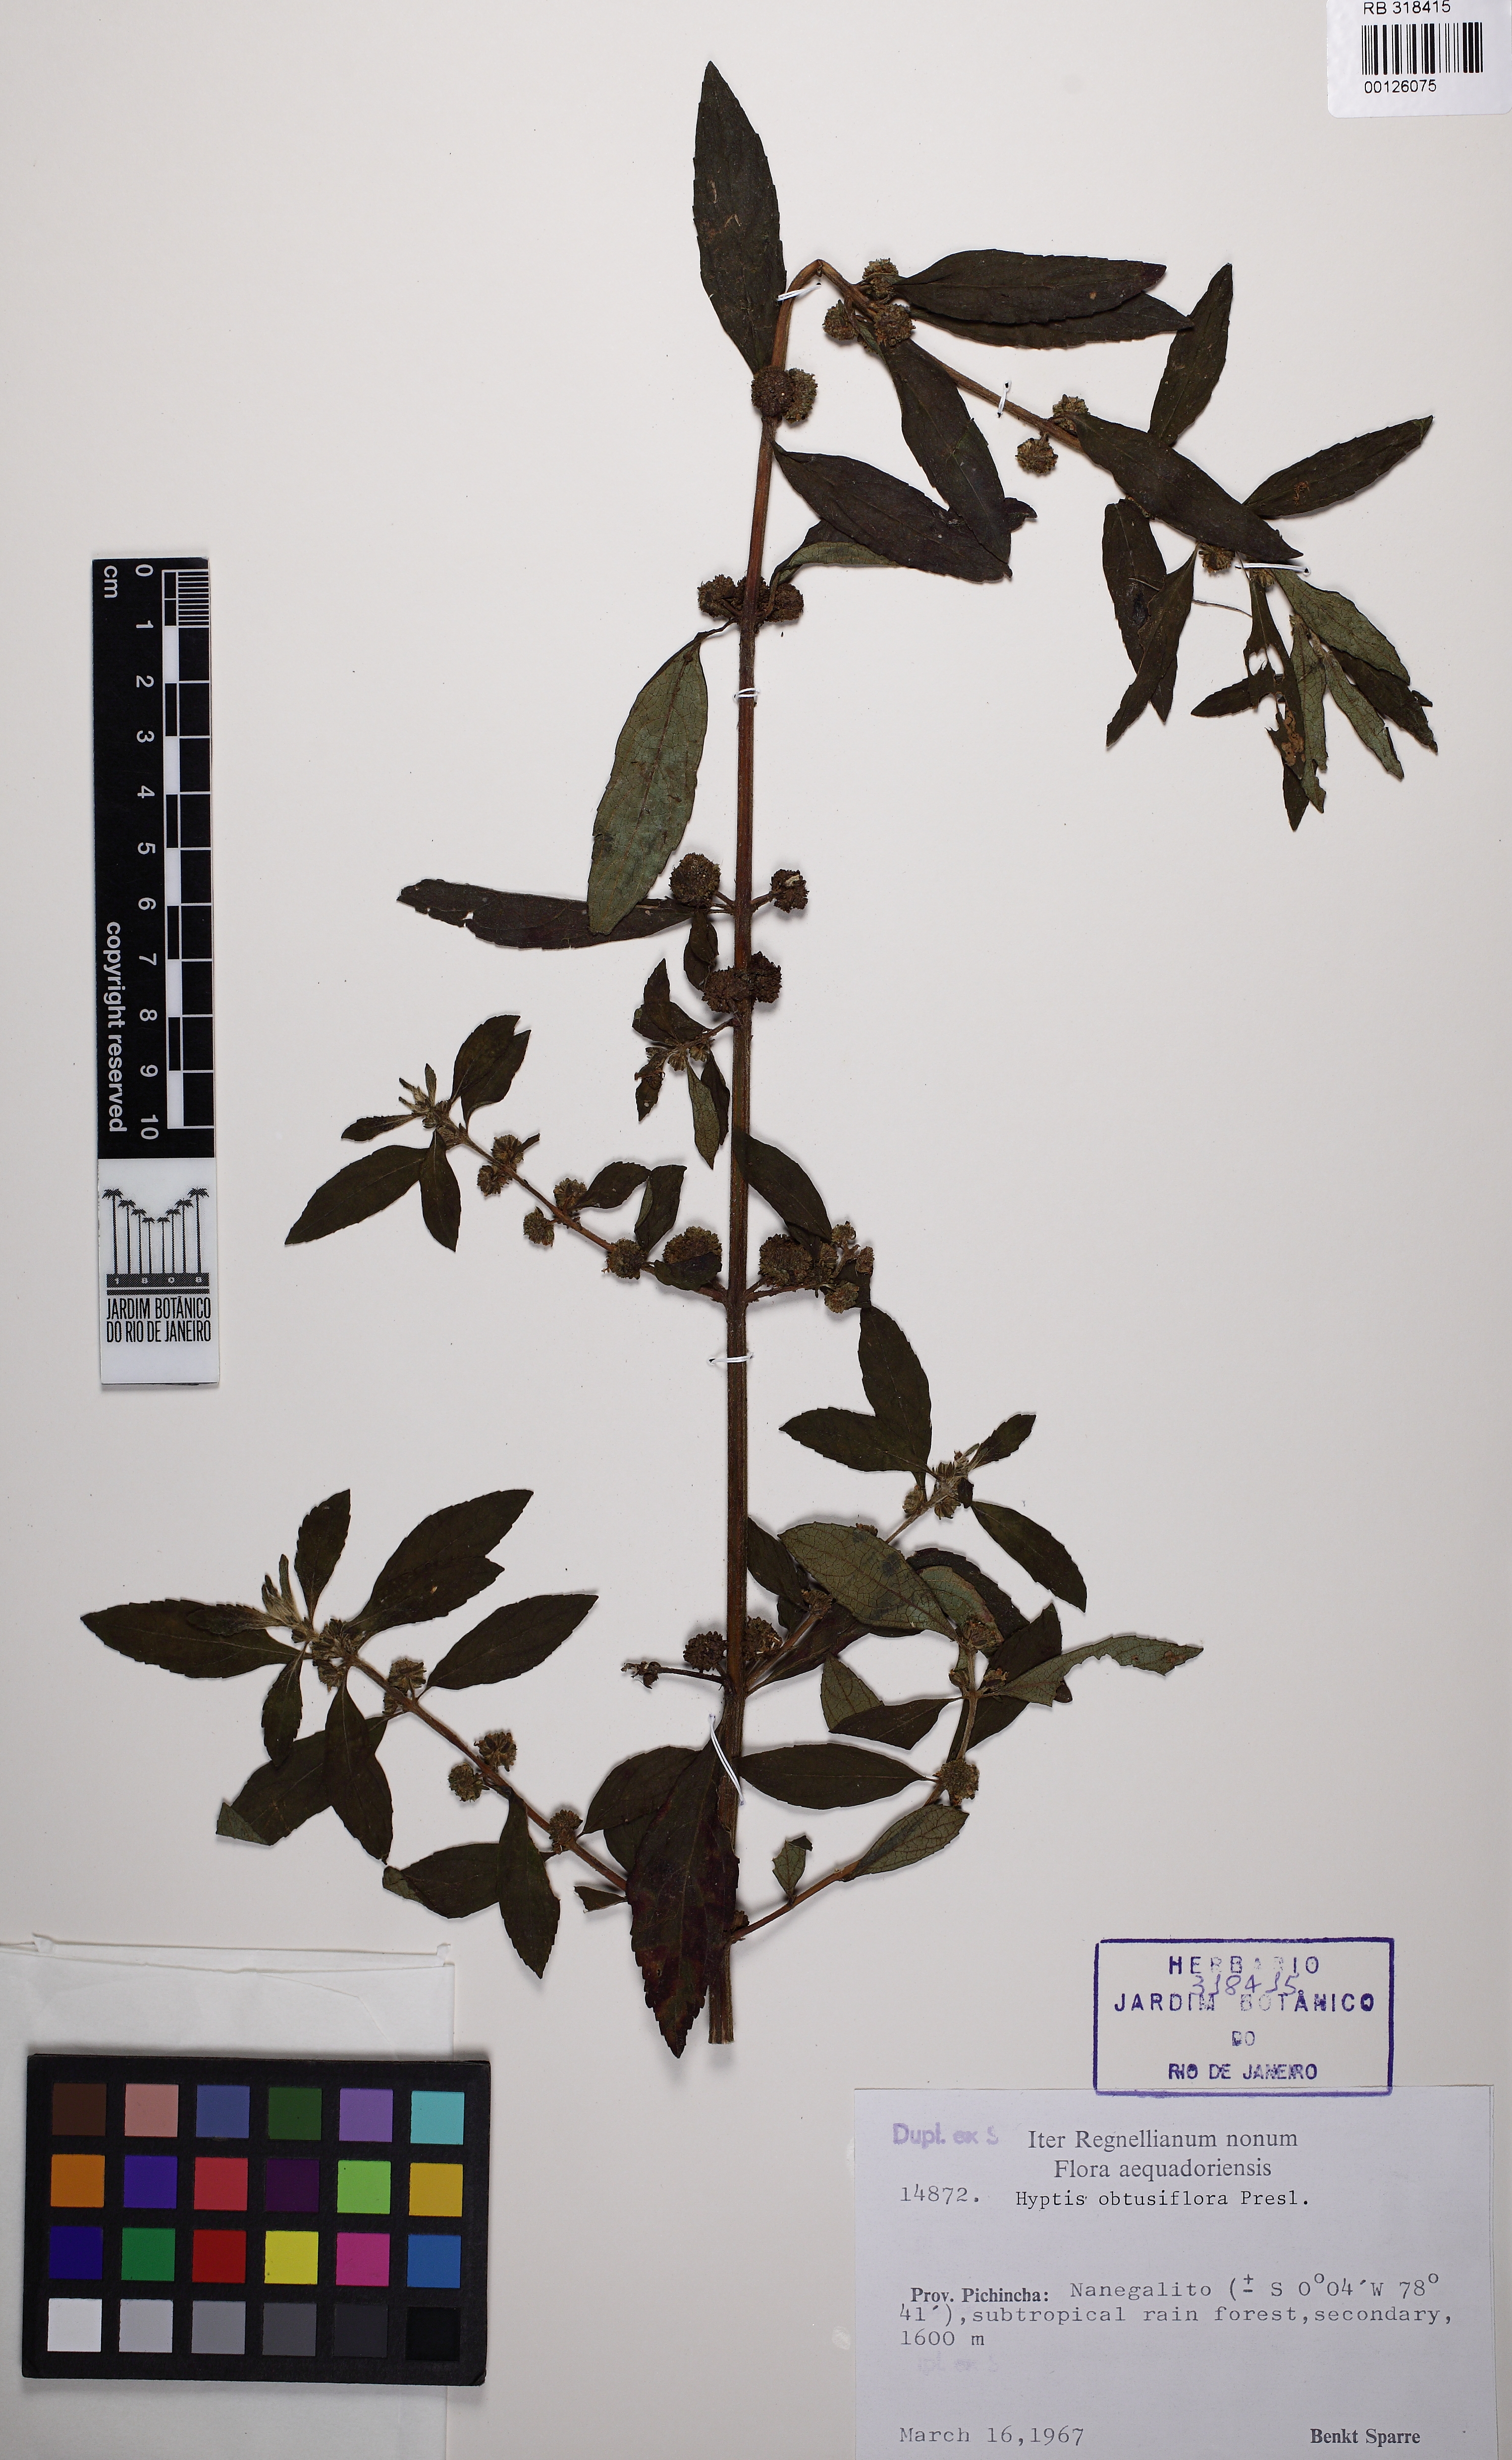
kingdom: Plantae
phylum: Tracheophyta
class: Magnoliopsida
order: Lamiales
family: Lamiaceae
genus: Hyptis
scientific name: Hyptis obtusiflora
